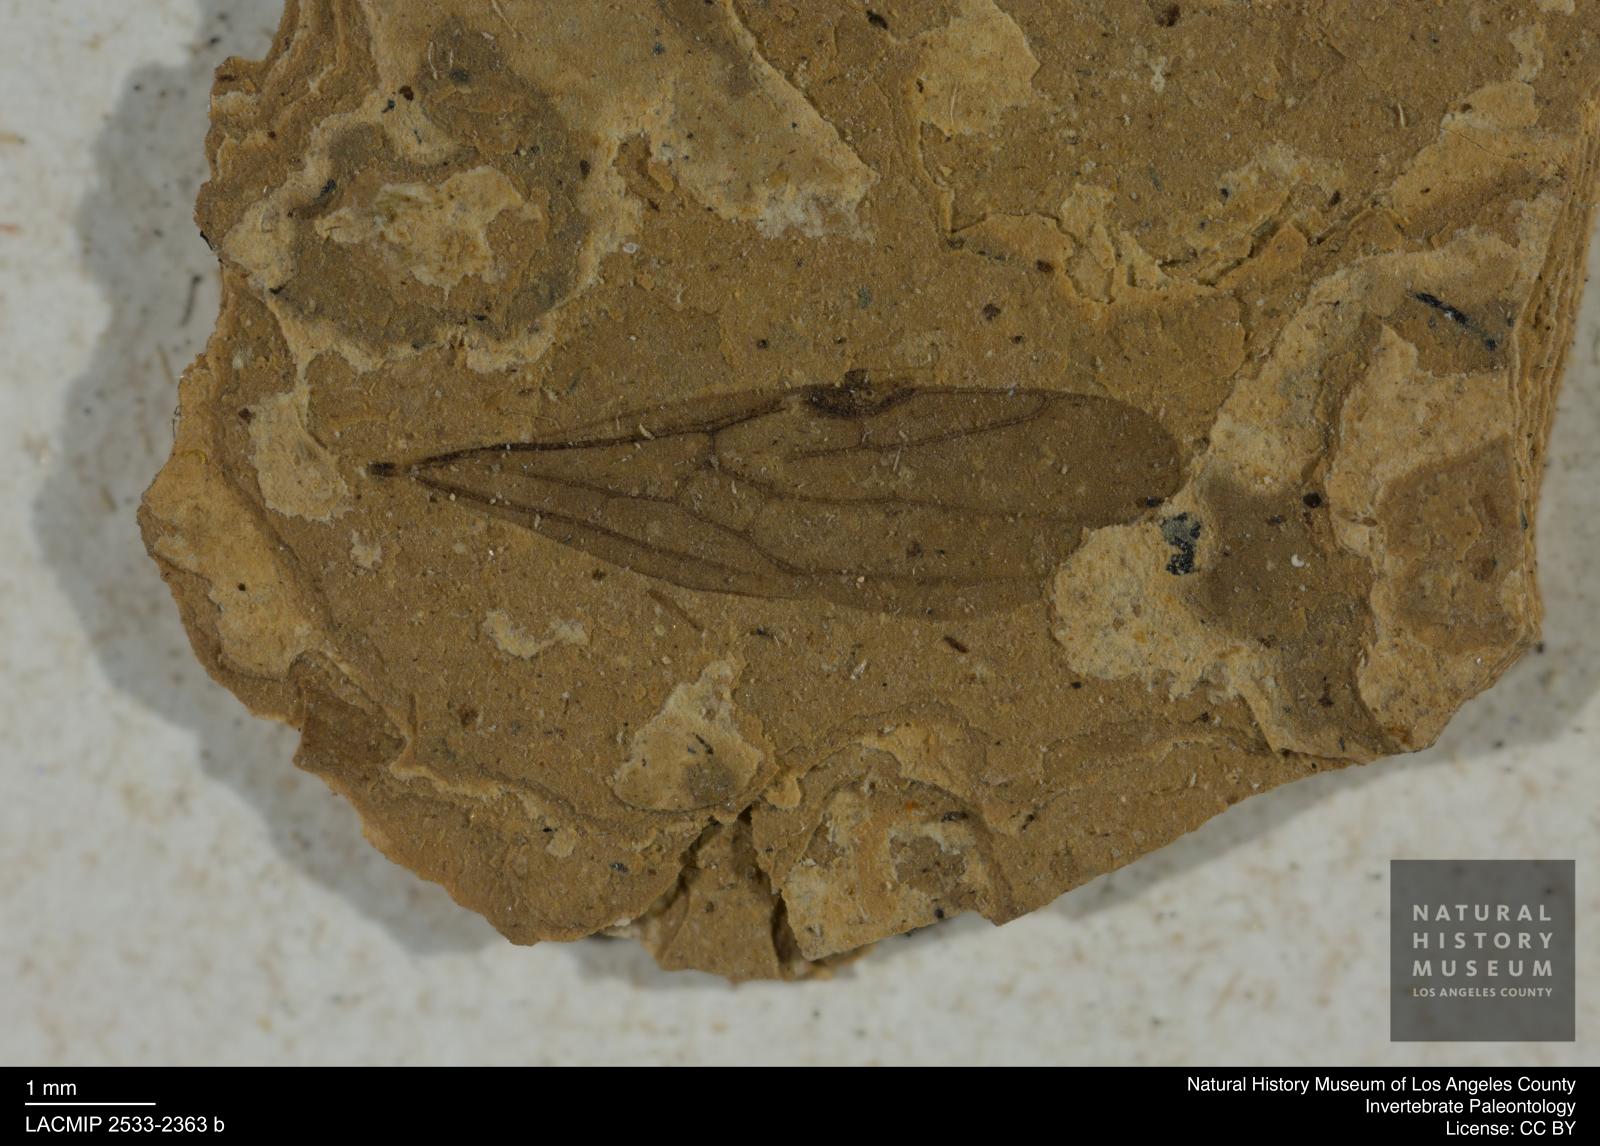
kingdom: Animalia
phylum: Arthropoda
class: Insecta
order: Hymenoptera
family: Formicidae
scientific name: Formicidae
